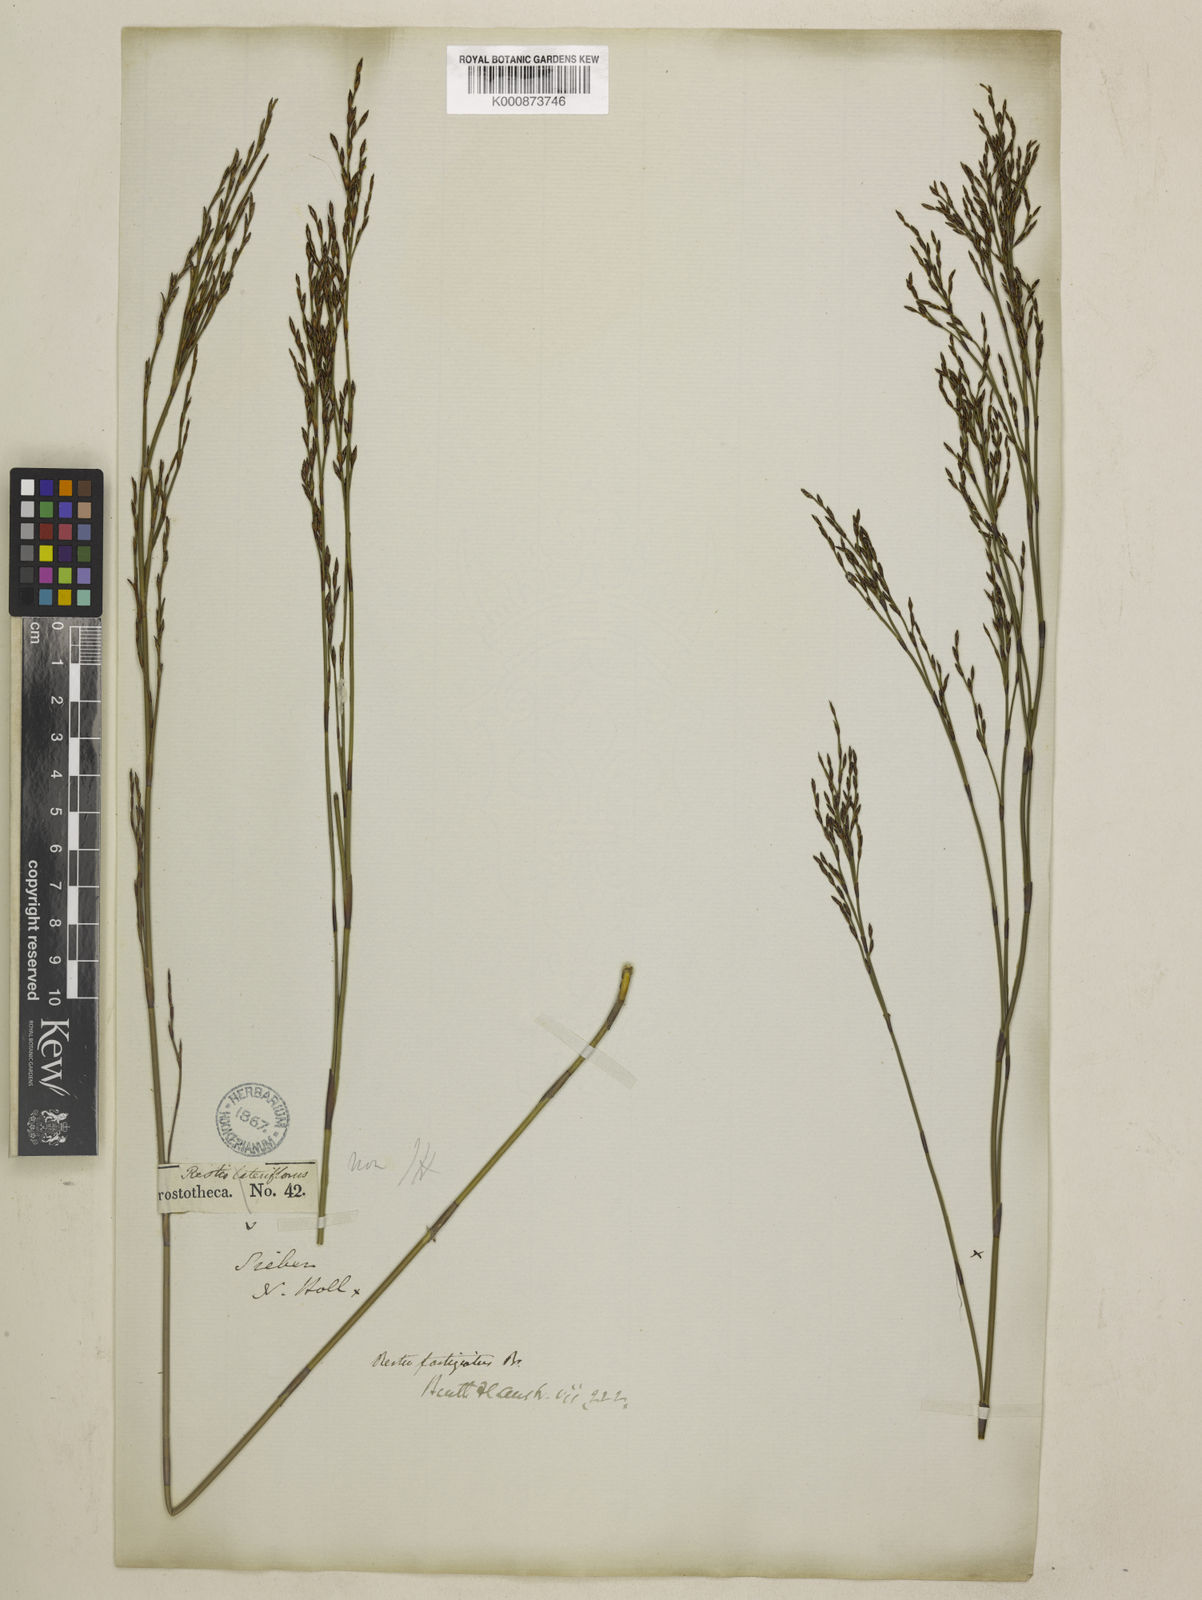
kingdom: Plantae
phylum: Tracheophyta
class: Liliopsida
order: Poales
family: Restionaceae
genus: Chordifex
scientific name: Chordifex fastigiatus
